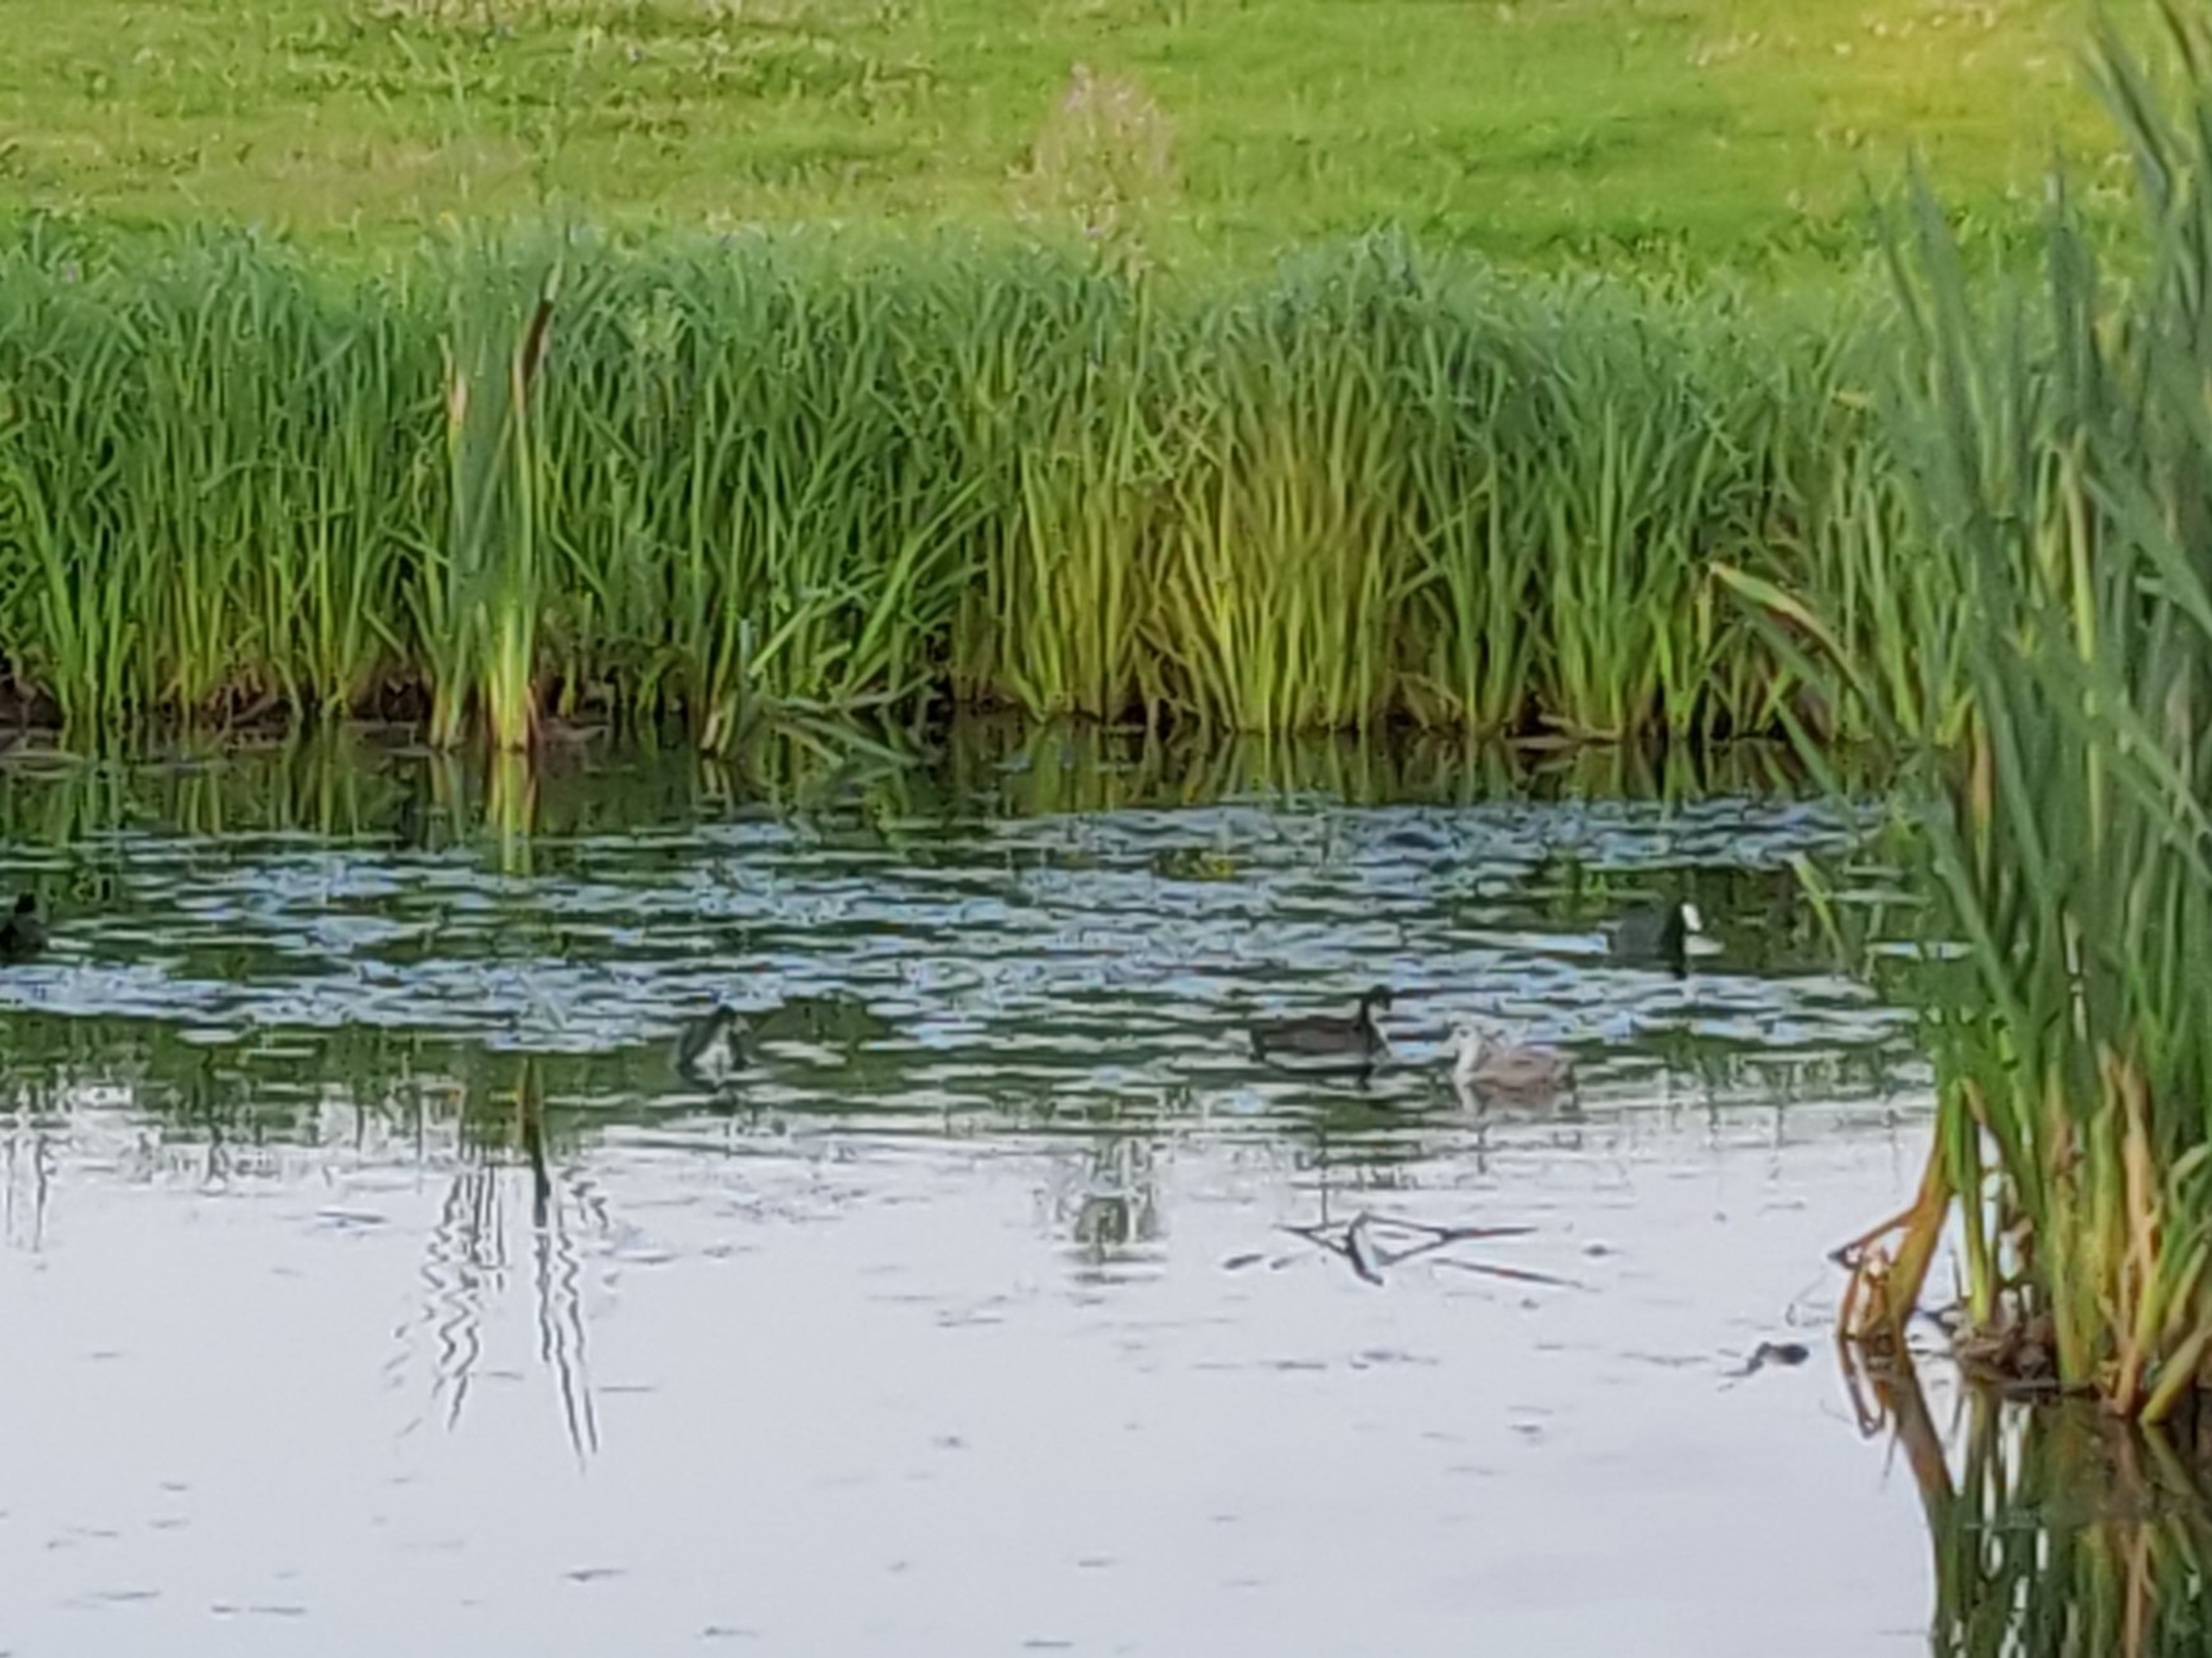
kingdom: Animalia
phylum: Chordata
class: Aves
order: Gruiformes
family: Rallidae
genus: Fulica
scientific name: Fulica atra
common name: Blishøne
